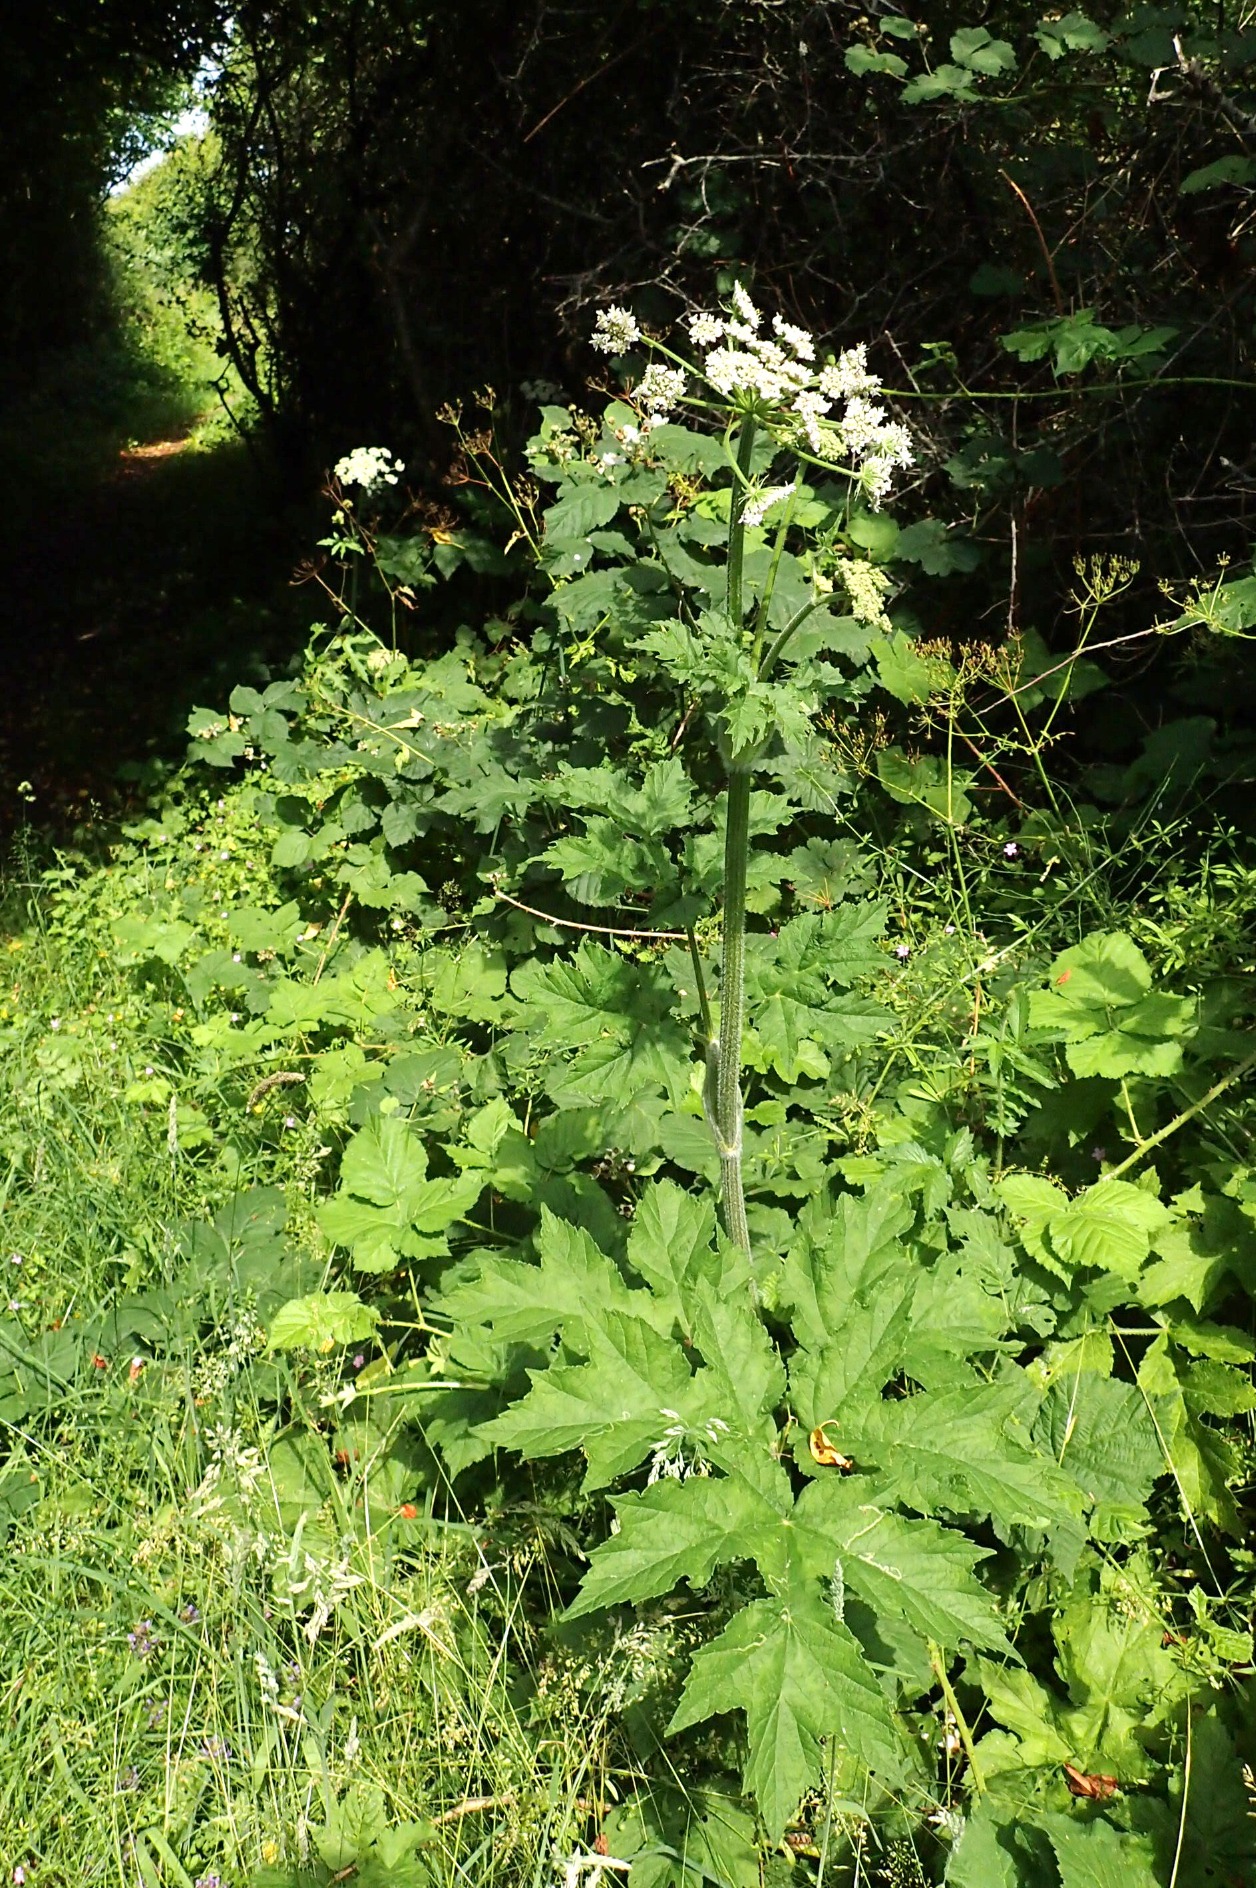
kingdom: Plantae
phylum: Tracheophyta
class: Magnoliopsida
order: Apiales
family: Apiaceae
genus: Heracleum
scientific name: Heracleum sphondylium
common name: Almindelig bjørneklo
